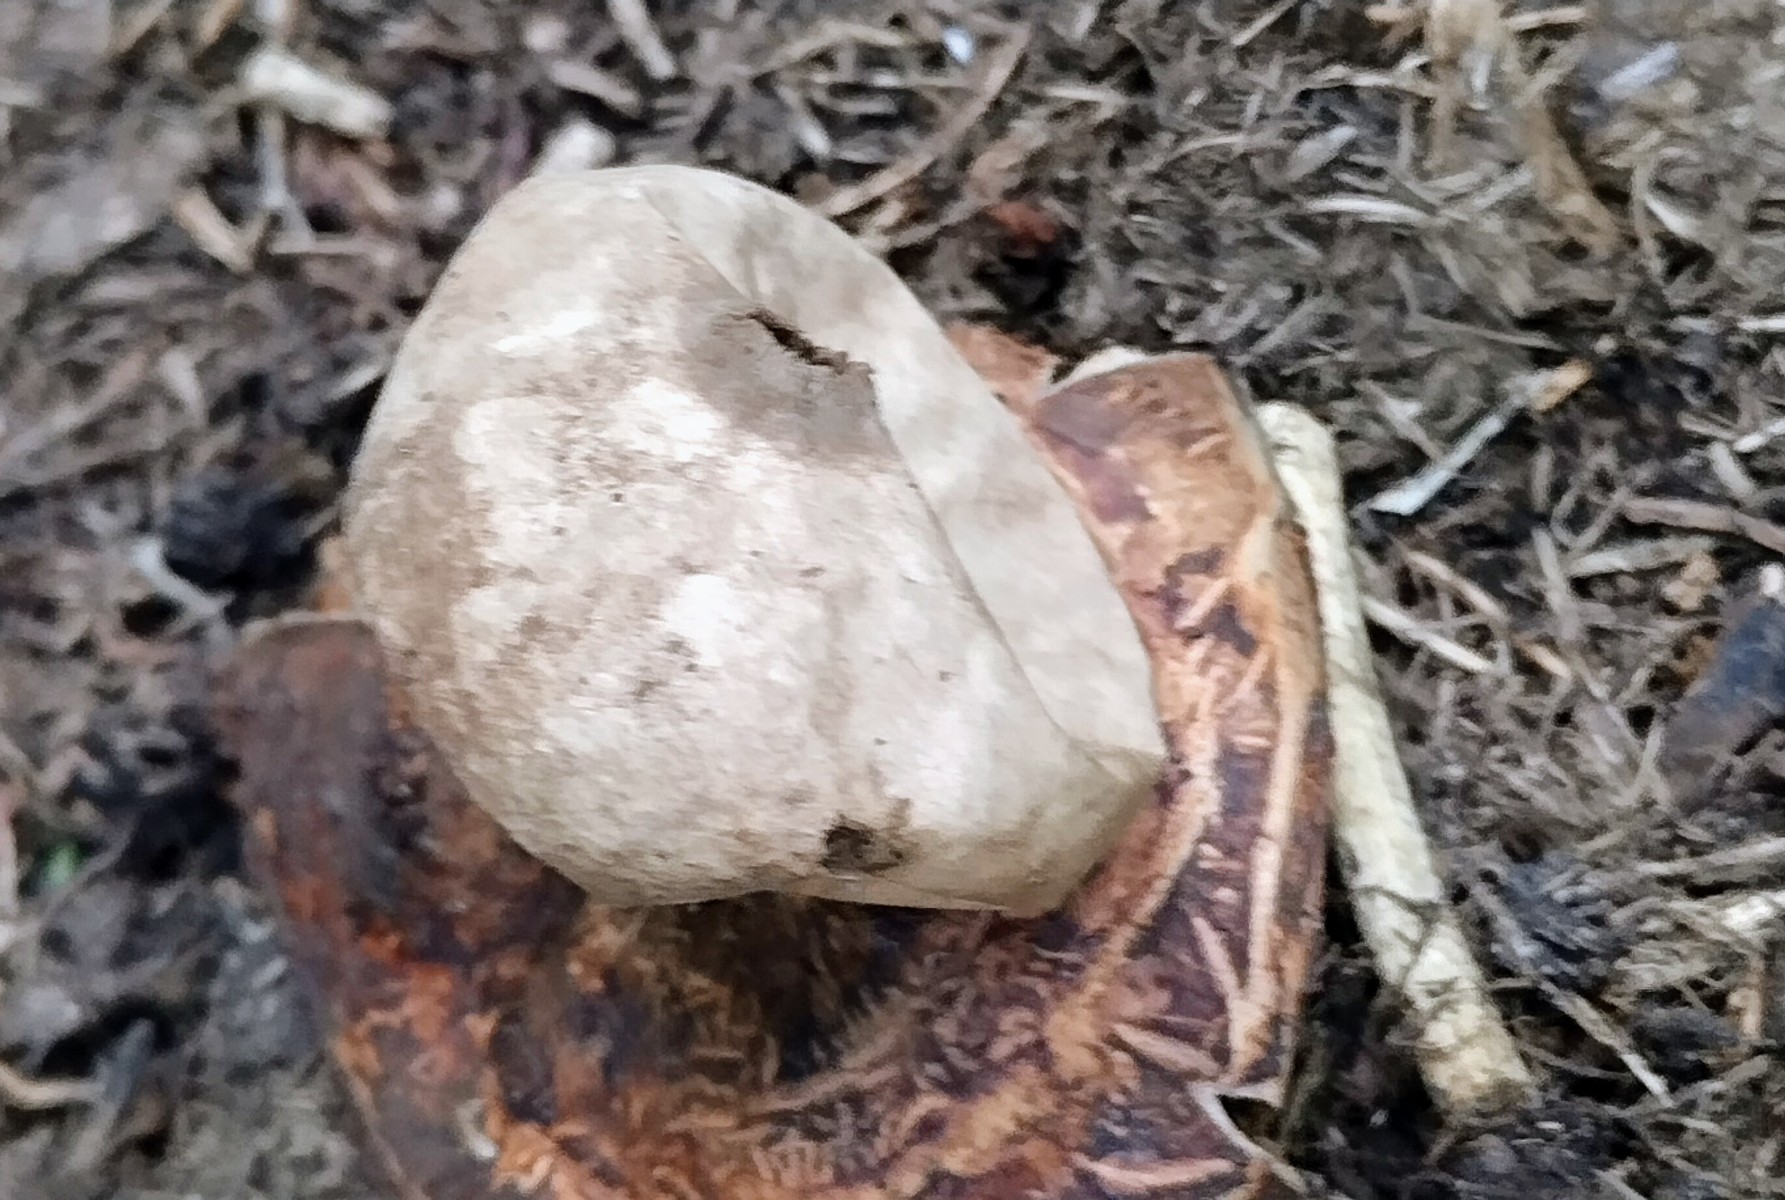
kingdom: Fungi
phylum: Basidiomycota
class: Agaricomycetes
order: Geastrales
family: Geastraceae
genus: Geastrum
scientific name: Geastrum
